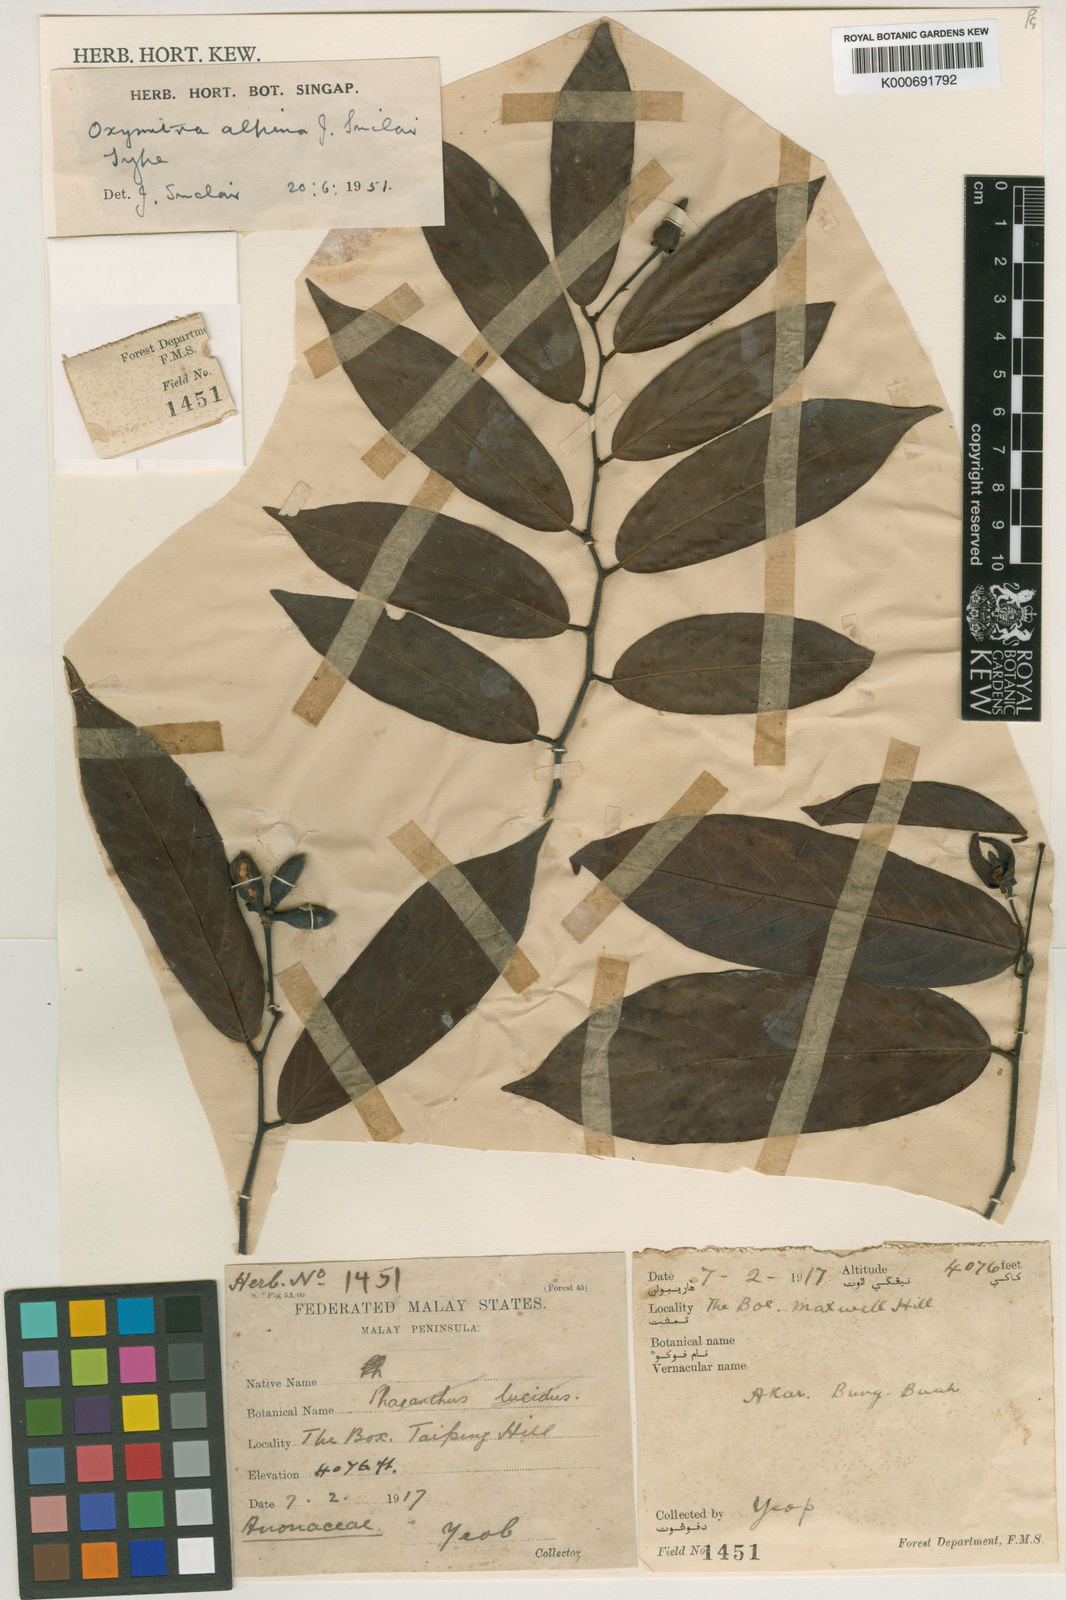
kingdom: Plantae
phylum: Tracheophyta
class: Magnoliopsida
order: Magnoliales
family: Annonaceae
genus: Friesodielsia
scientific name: Friesodielsia alpina
